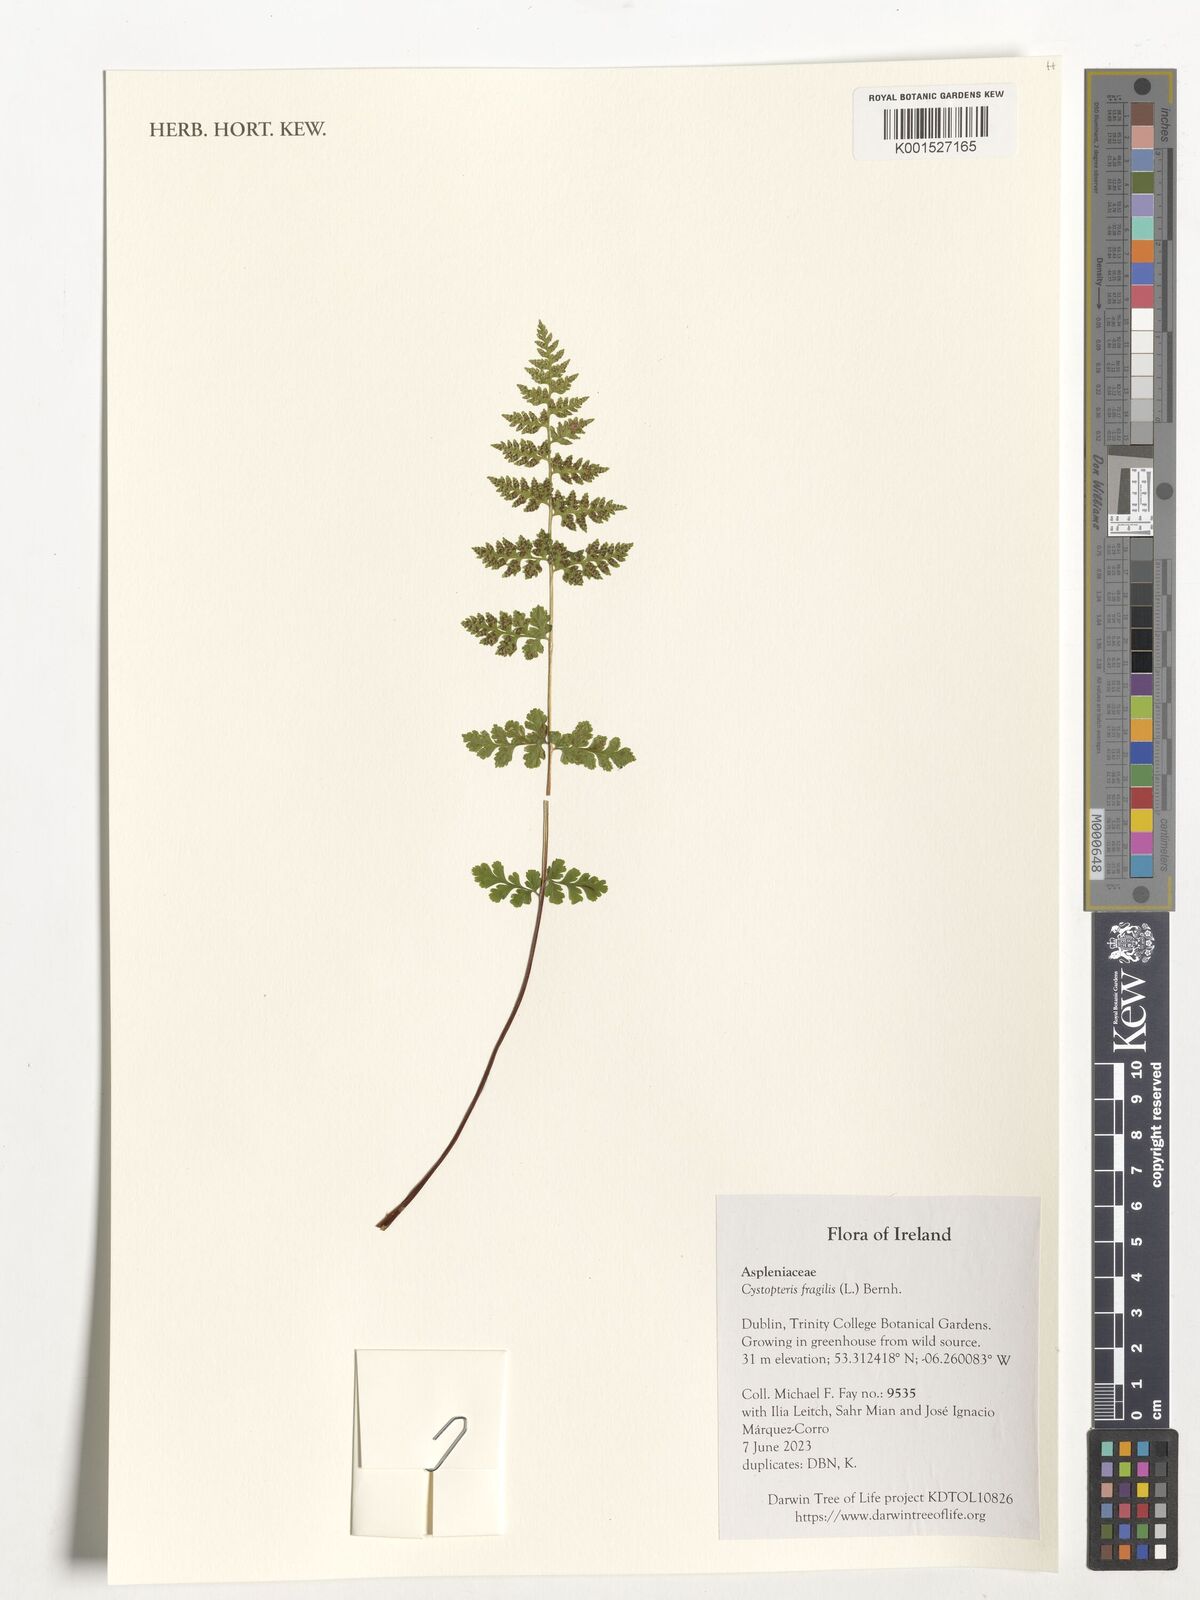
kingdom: Plantae
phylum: Tracheophyta
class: Polypodiopsida
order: Polypodiales
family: Cystopteridaceae
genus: Cystopteris
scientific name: Cystopteris fragilis
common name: Brittle bladder fern
